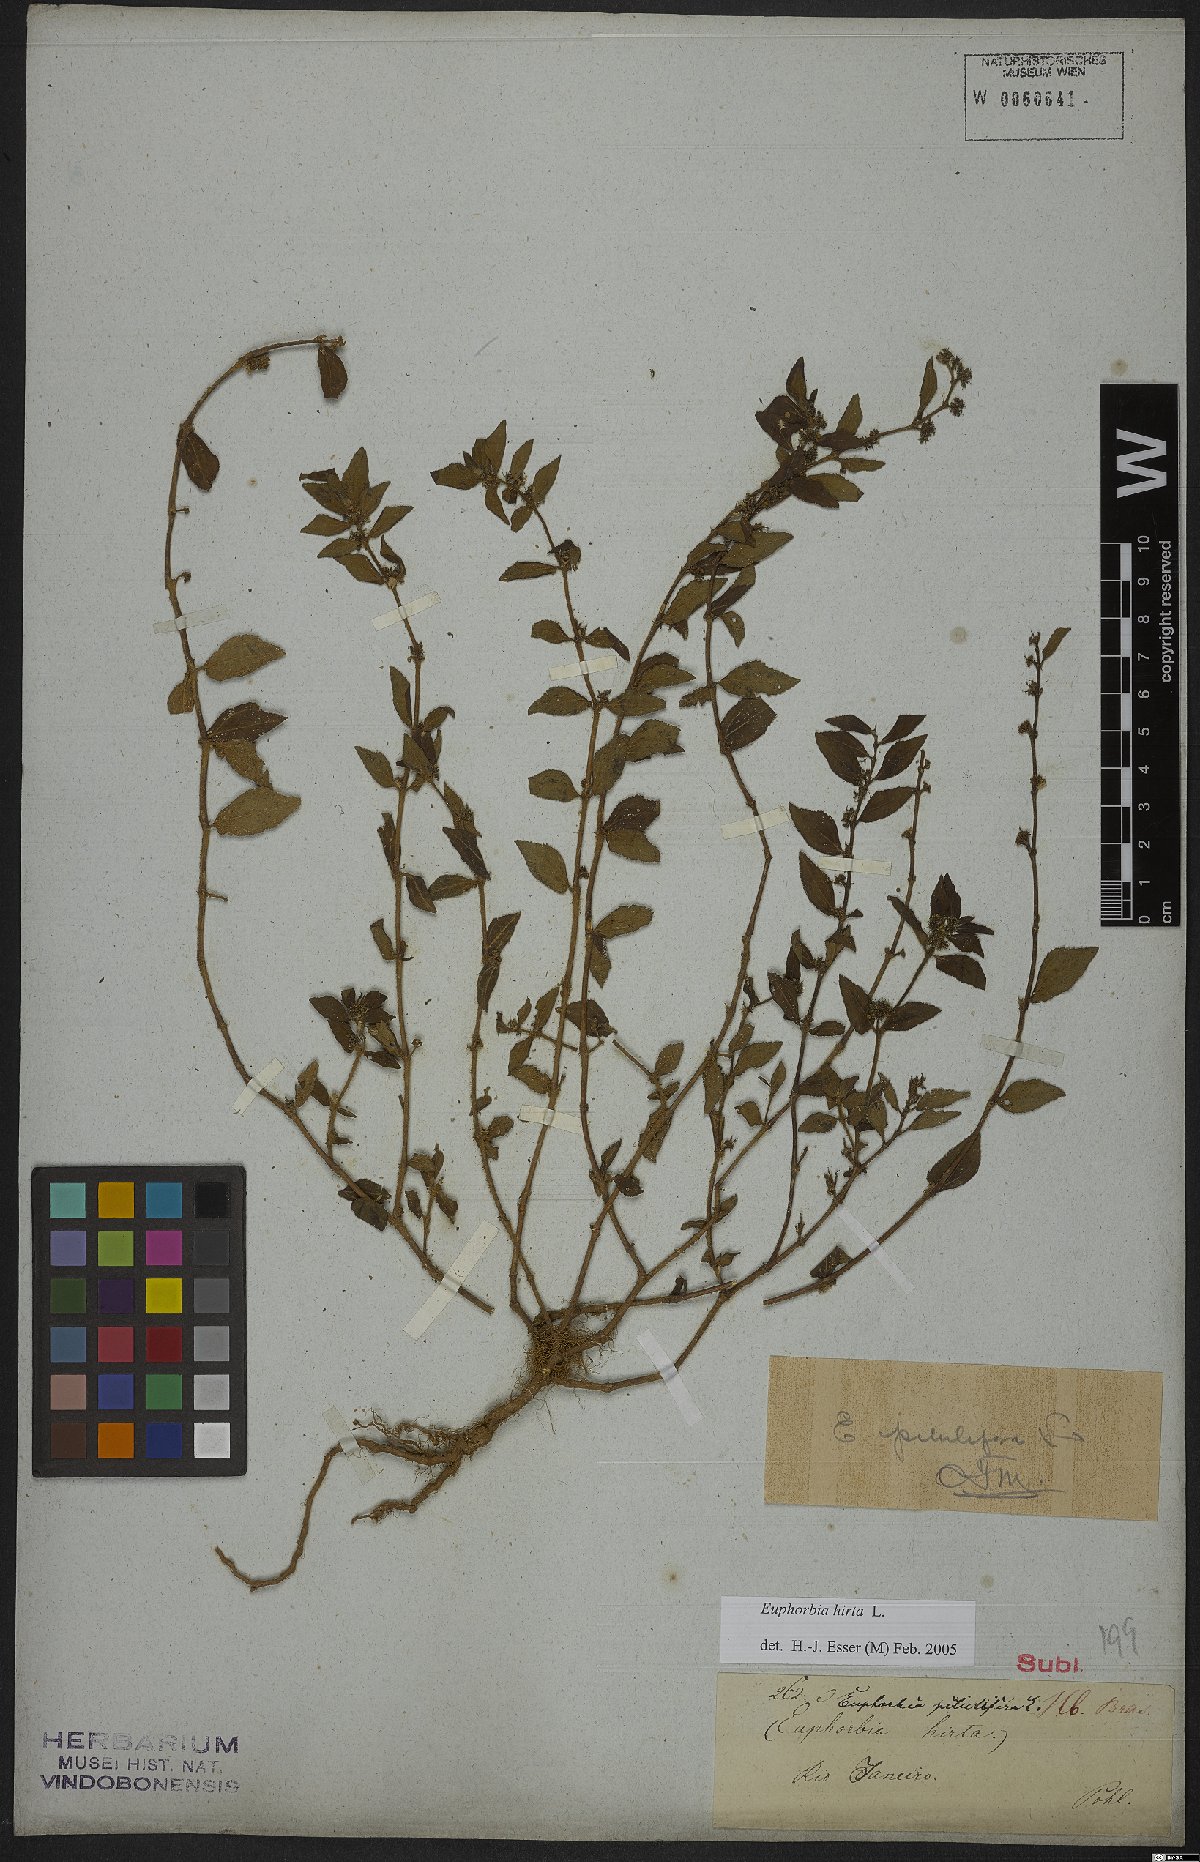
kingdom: Plantae
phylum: Tracheophyta
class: Magnoliopsida
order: Malpighiales
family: Euphorbiaceae
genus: Euphorbia
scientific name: Euphorbia hirta
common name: Pillpod sandmat
